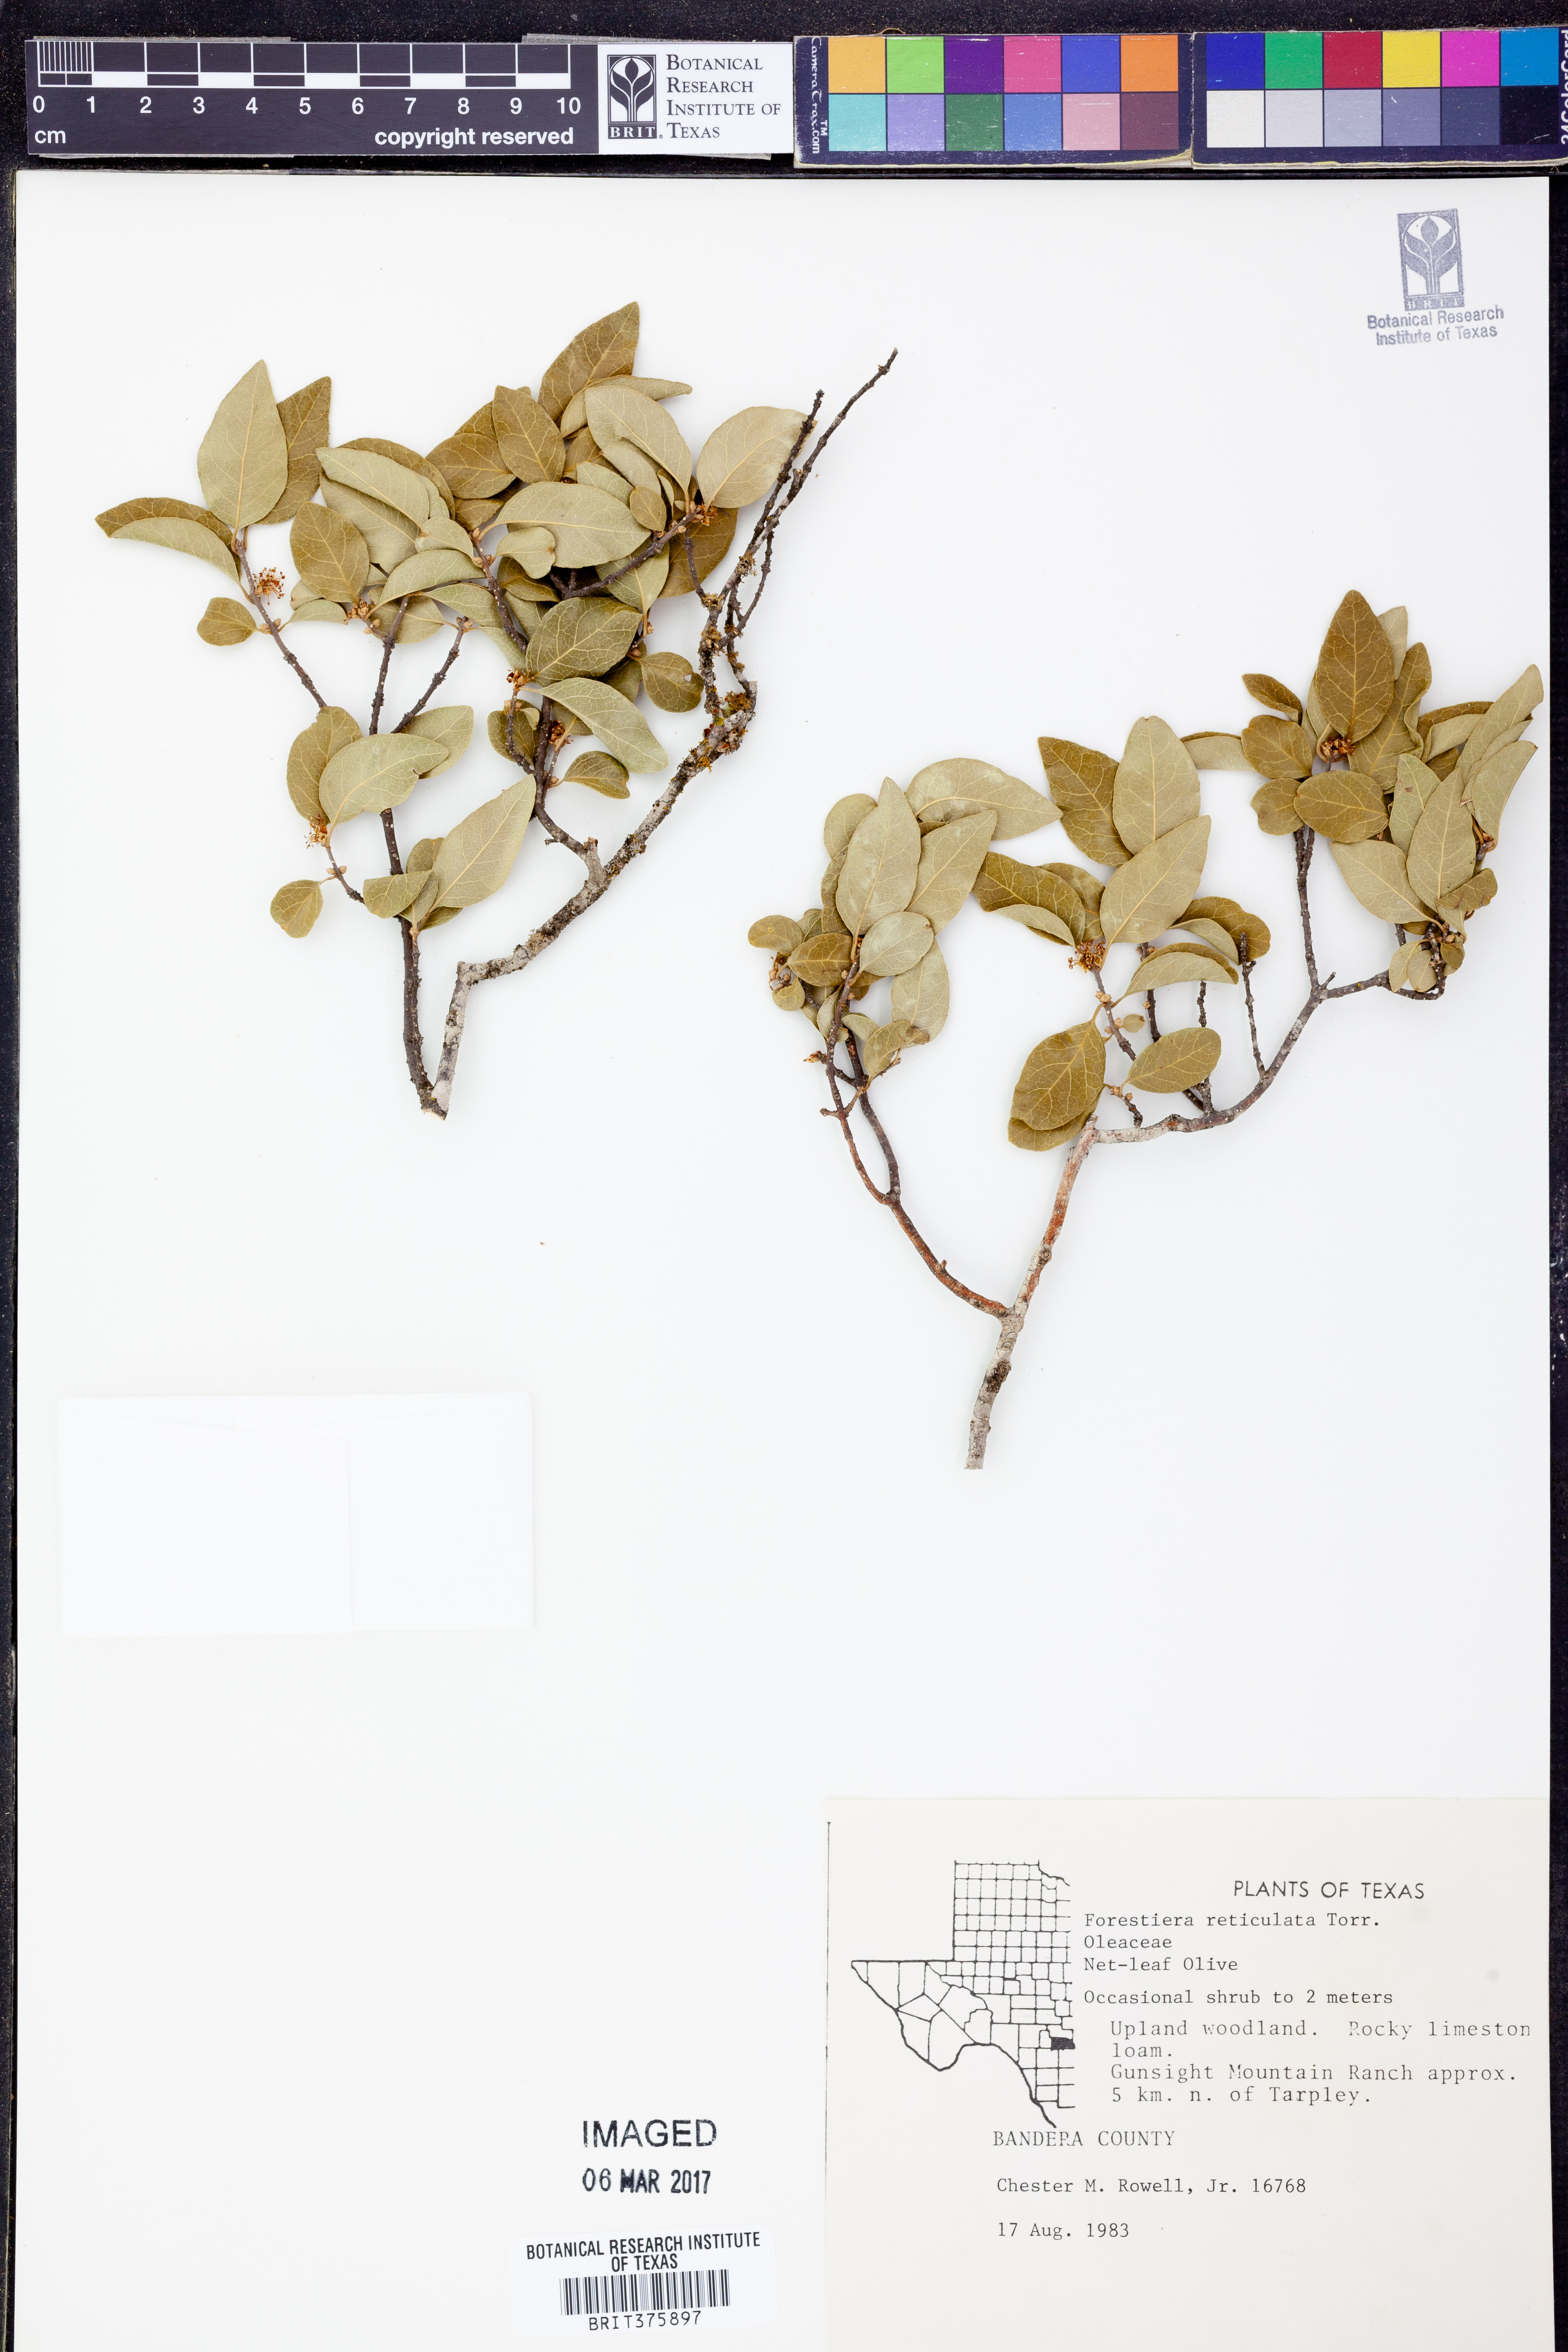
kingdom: Plantae
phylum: Tracheophyta
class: Magnoliopsida
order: Lamiales
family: Oleaceae
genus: Forestiera
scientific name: Forestiera reticulata
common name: Netleaf swamp-privet
